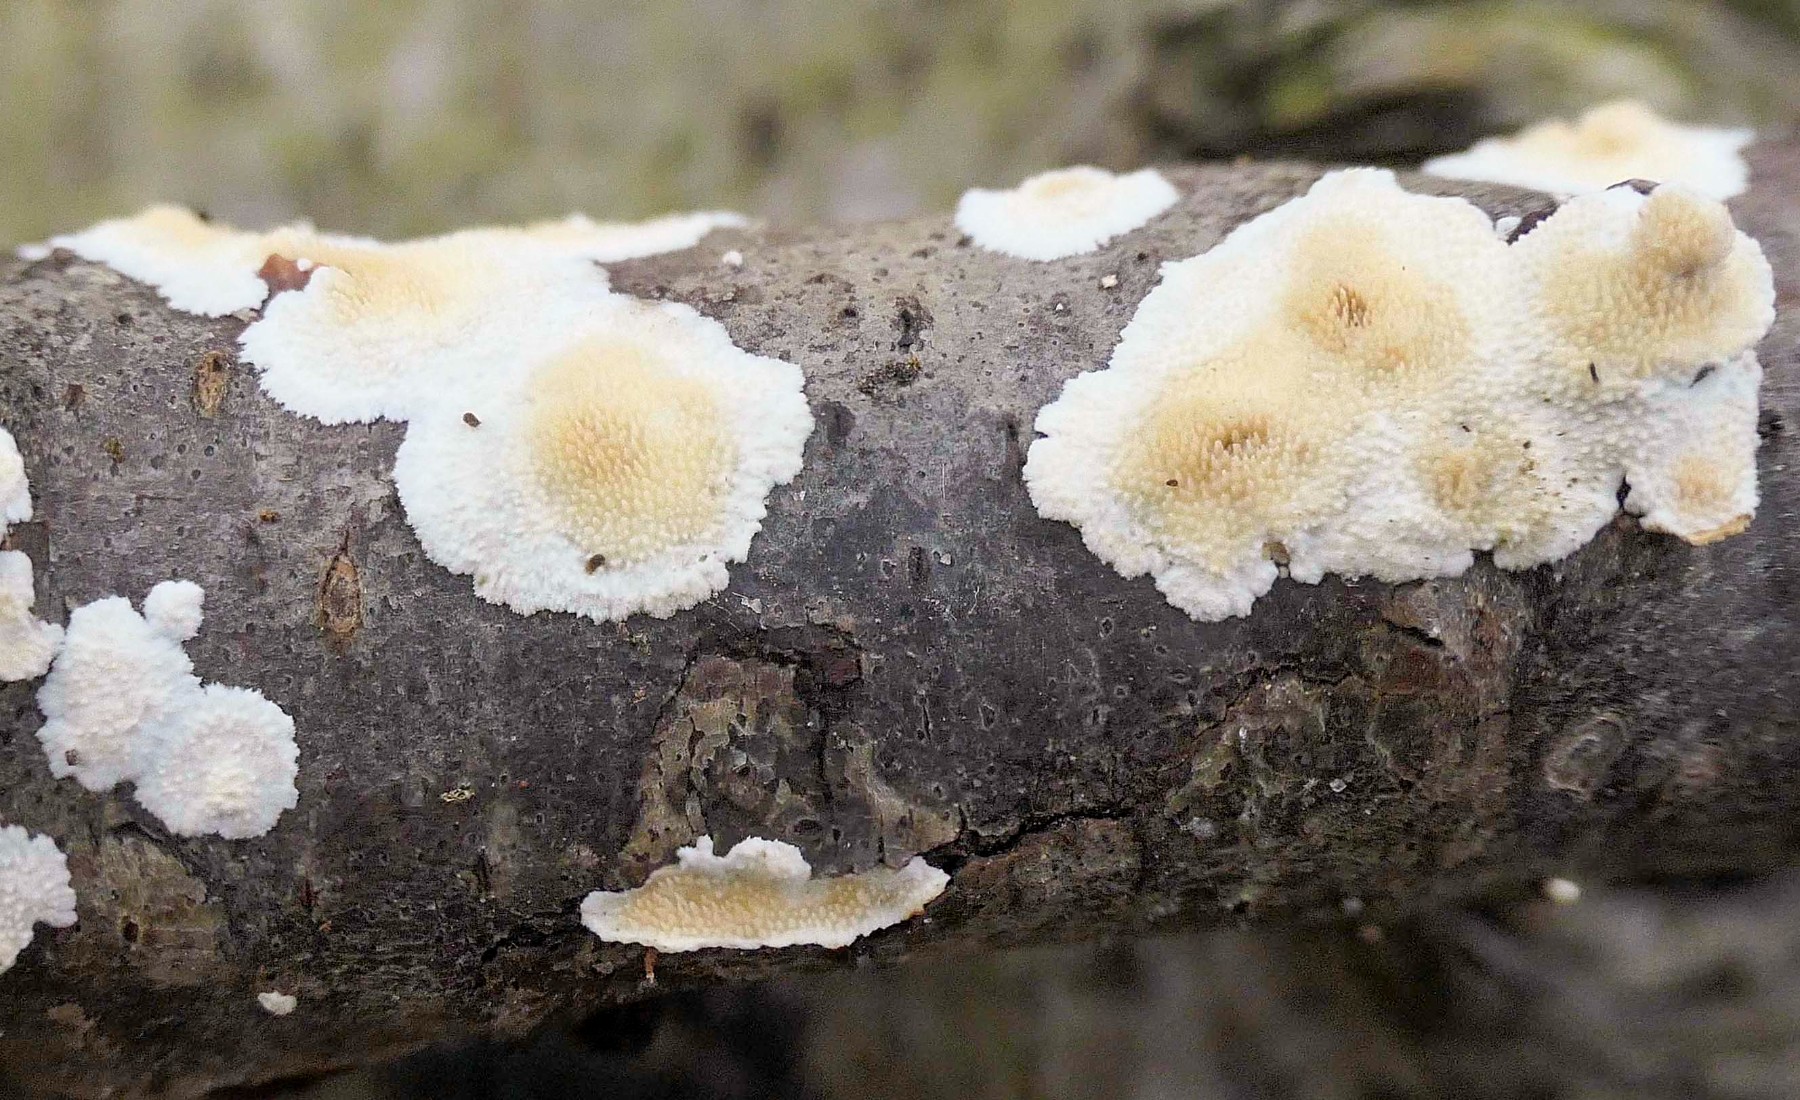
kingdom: Fungi
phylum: Basidiomycota
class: Agaricomycetes
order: Polyporales
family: Steccherinaceae
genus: Steccherinum
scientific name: Steccherinum ochraceum
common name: almindelig skønpig
